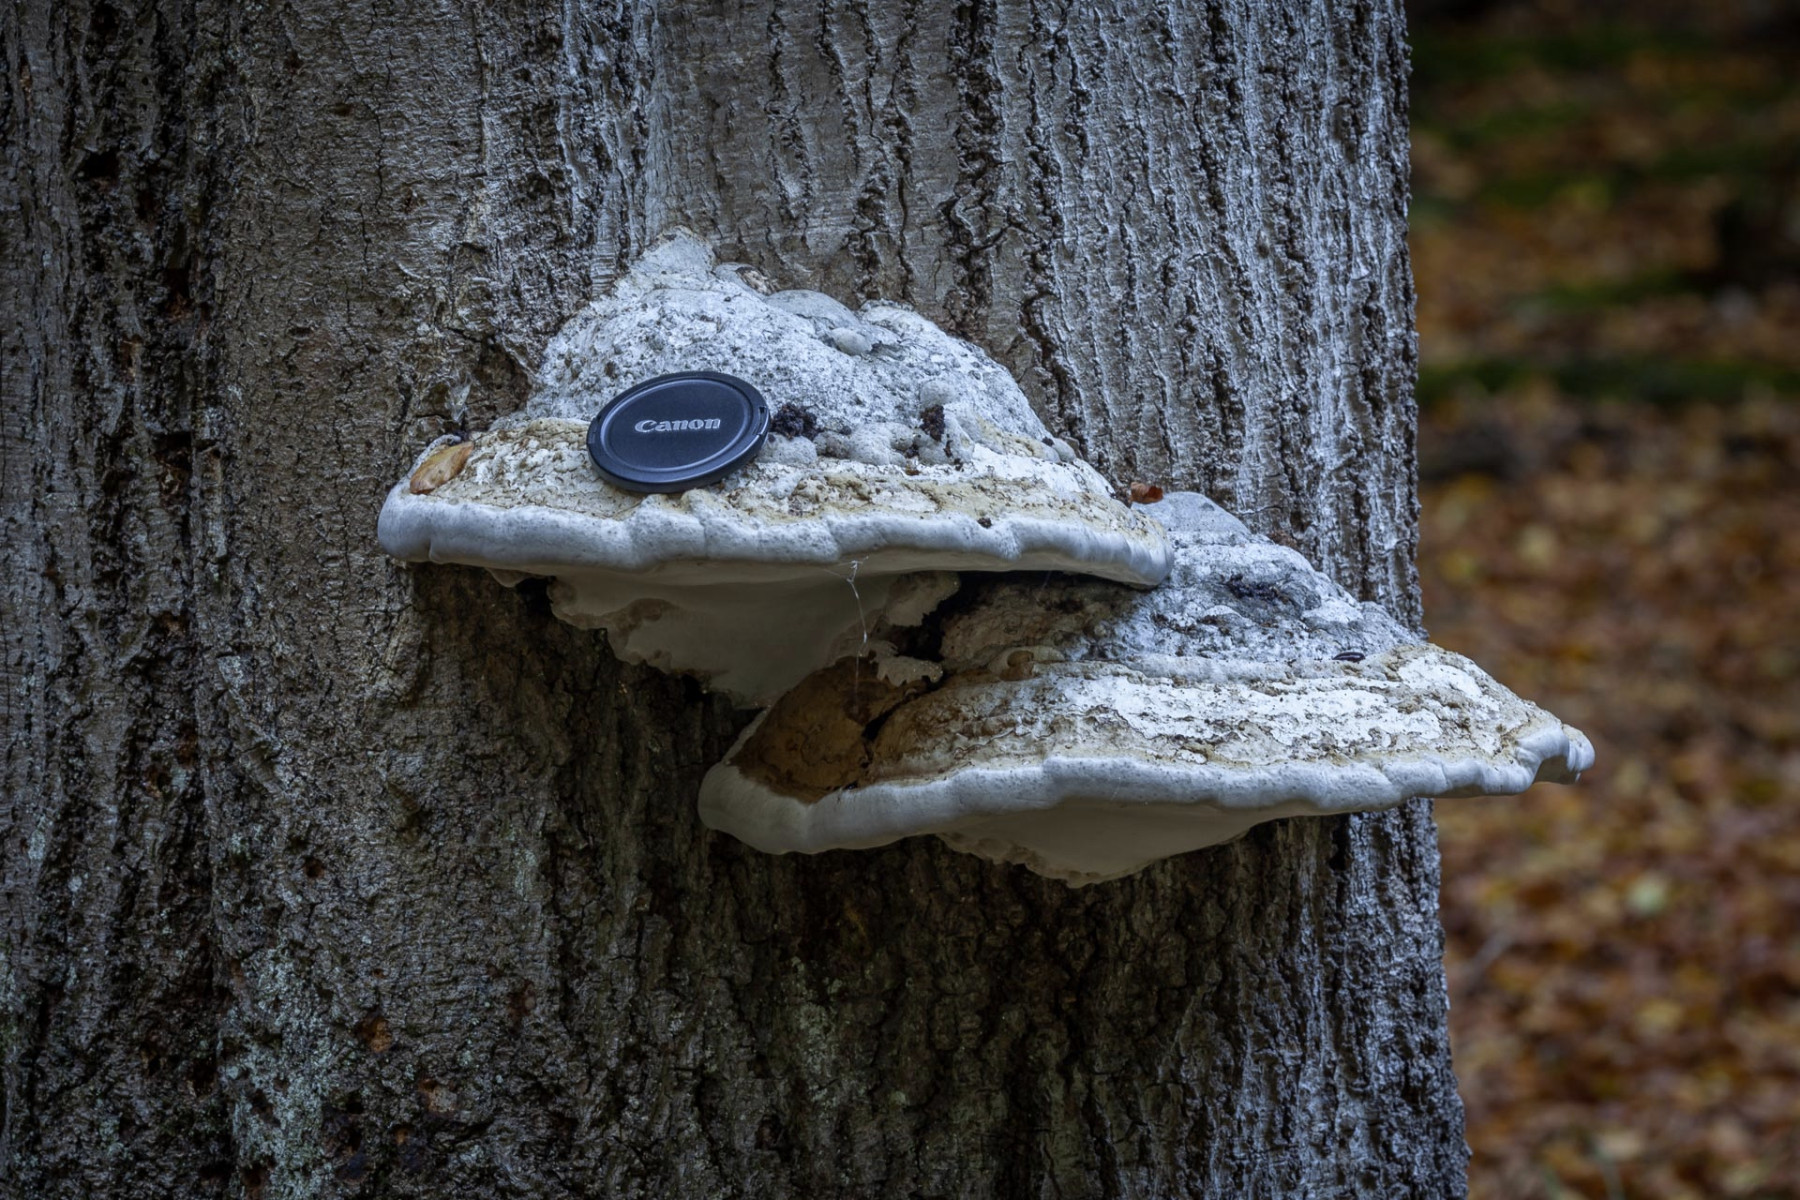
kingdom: Fungi
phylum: Basidiomycota
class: Agaricomycetes
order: Polyporales
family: Polyporaceae
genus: Fomes
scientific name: Fomes fomentarius
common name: tøndersvamp
